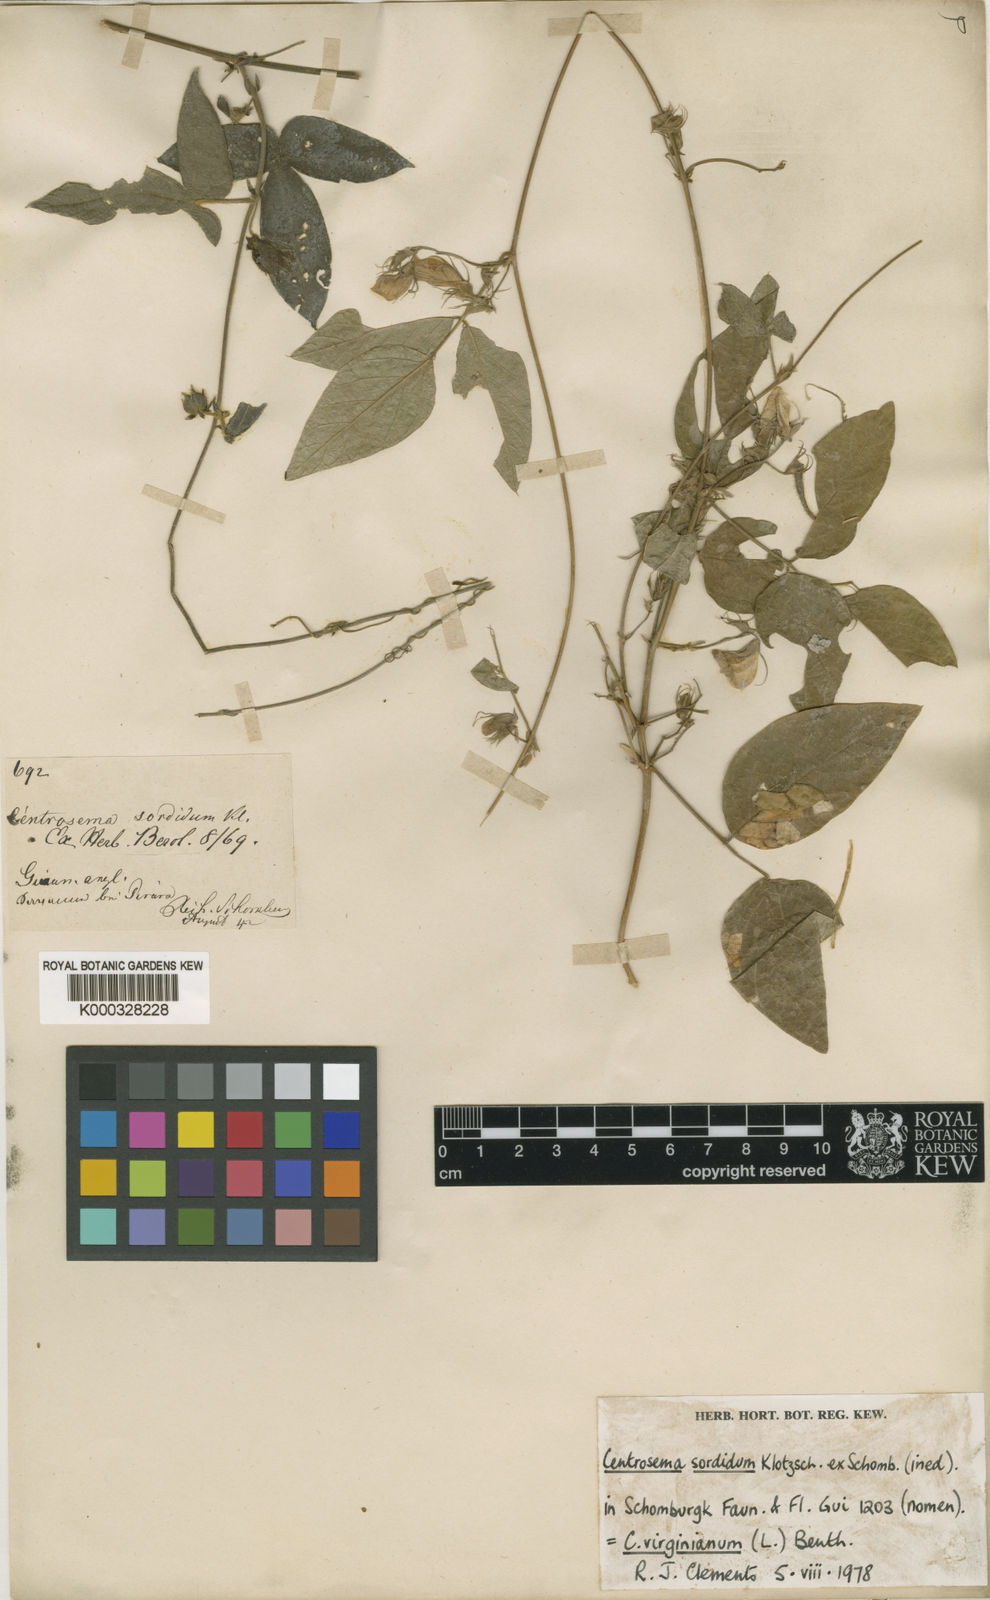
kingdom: Plantae
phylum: Tracheophyta
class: Magnoliopsida
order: Fabales
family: Fabaceae
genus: Centrosema
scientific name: Centrosema virginianum
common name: Butterfly-pea
